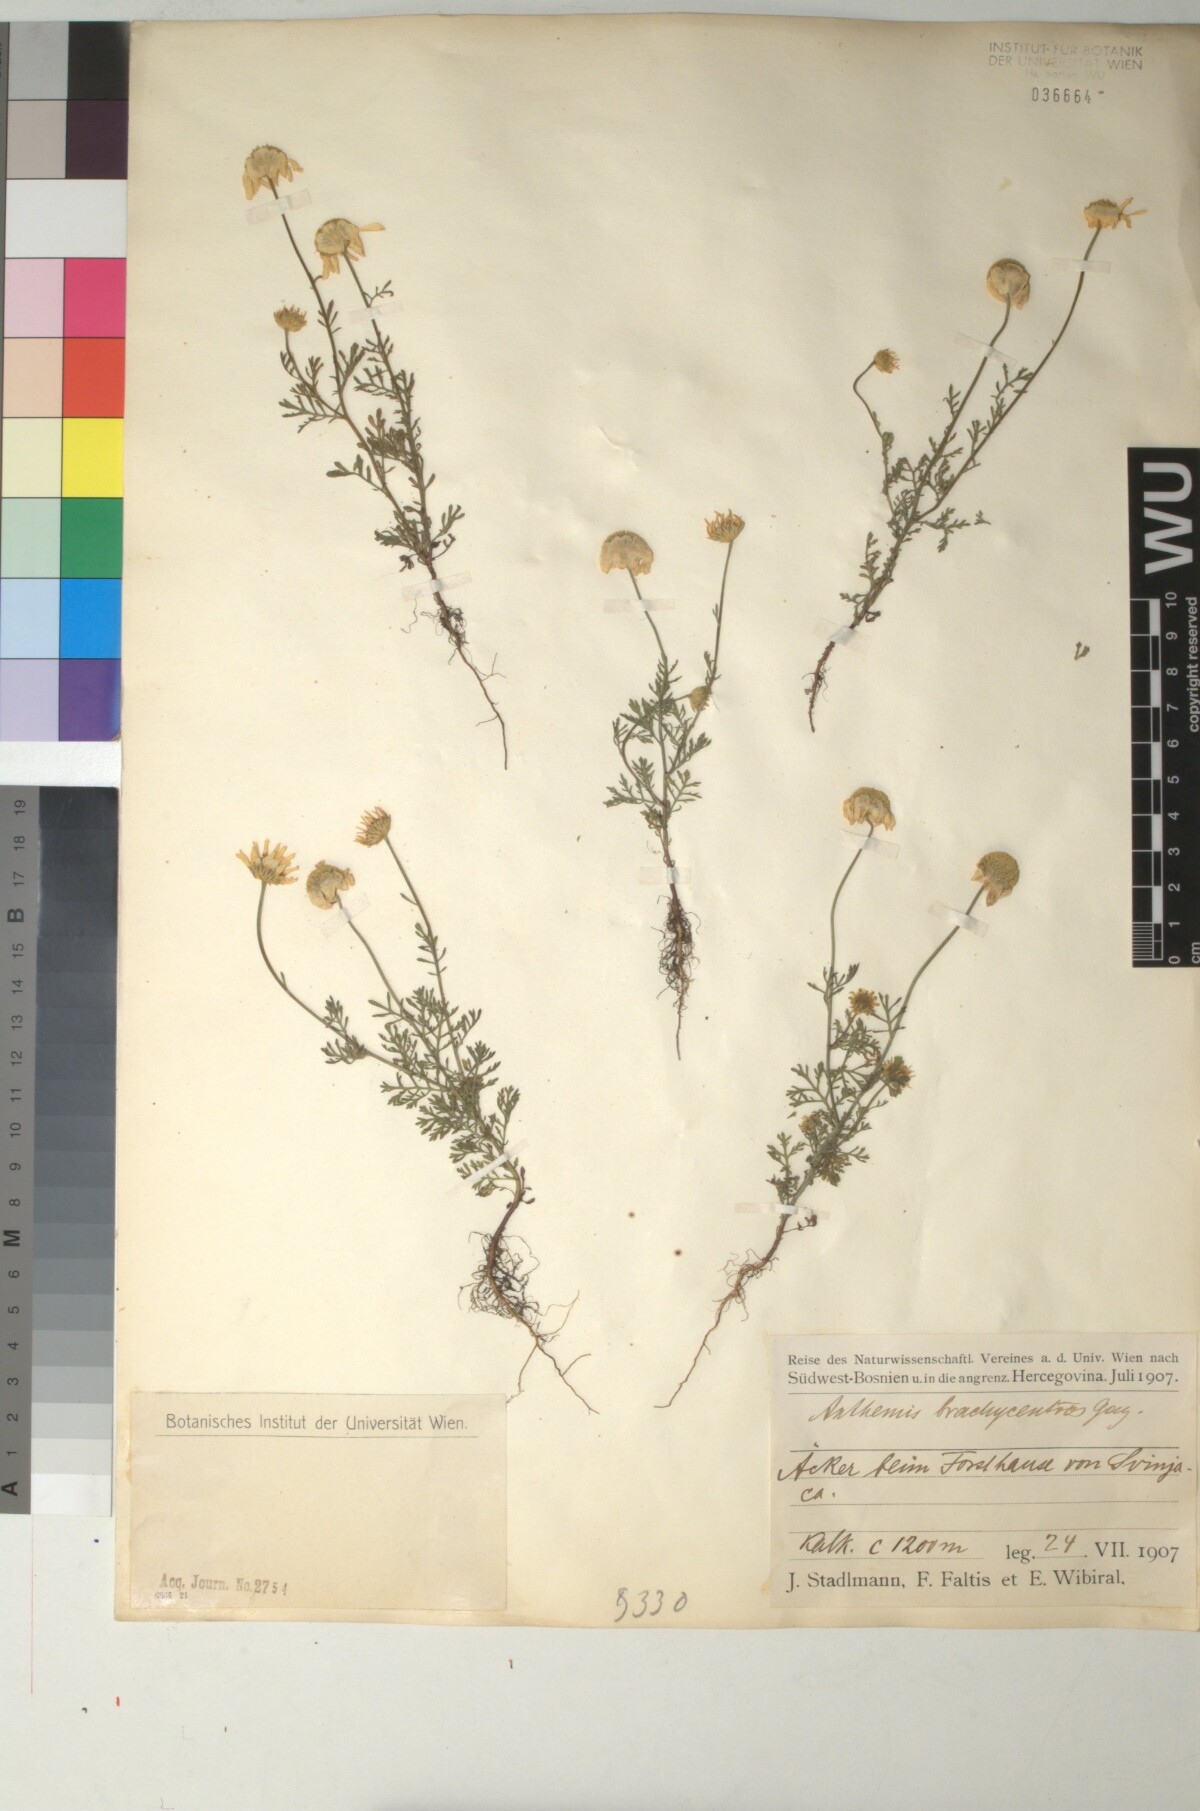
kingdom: Plantae
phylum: Tracheophyta
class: Magnoliopsida
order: Asterales
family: Asteraceae
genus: Cota
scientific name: Cota segetalis
